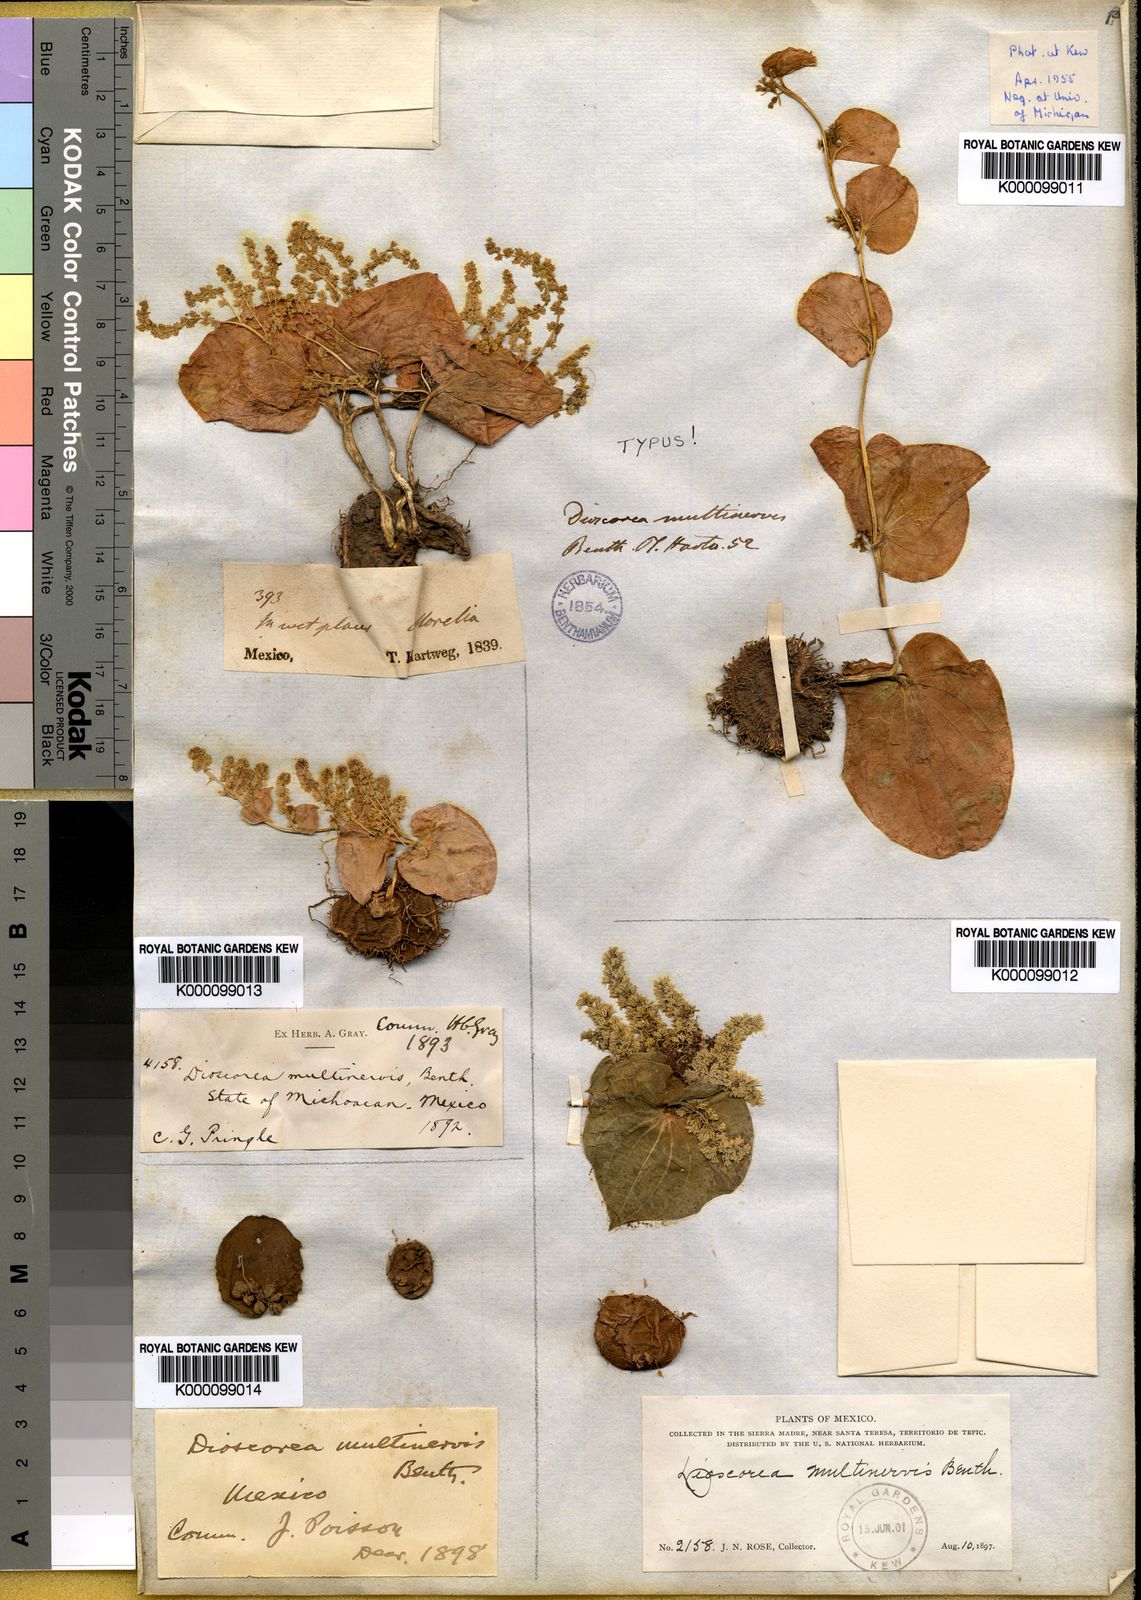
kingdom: Plantae
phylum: Tracheophyta
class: Liliopsida
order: Dioscoreales
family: Dioscoreaceae
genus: Dioscorea
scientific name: Dioscorea multinervis
